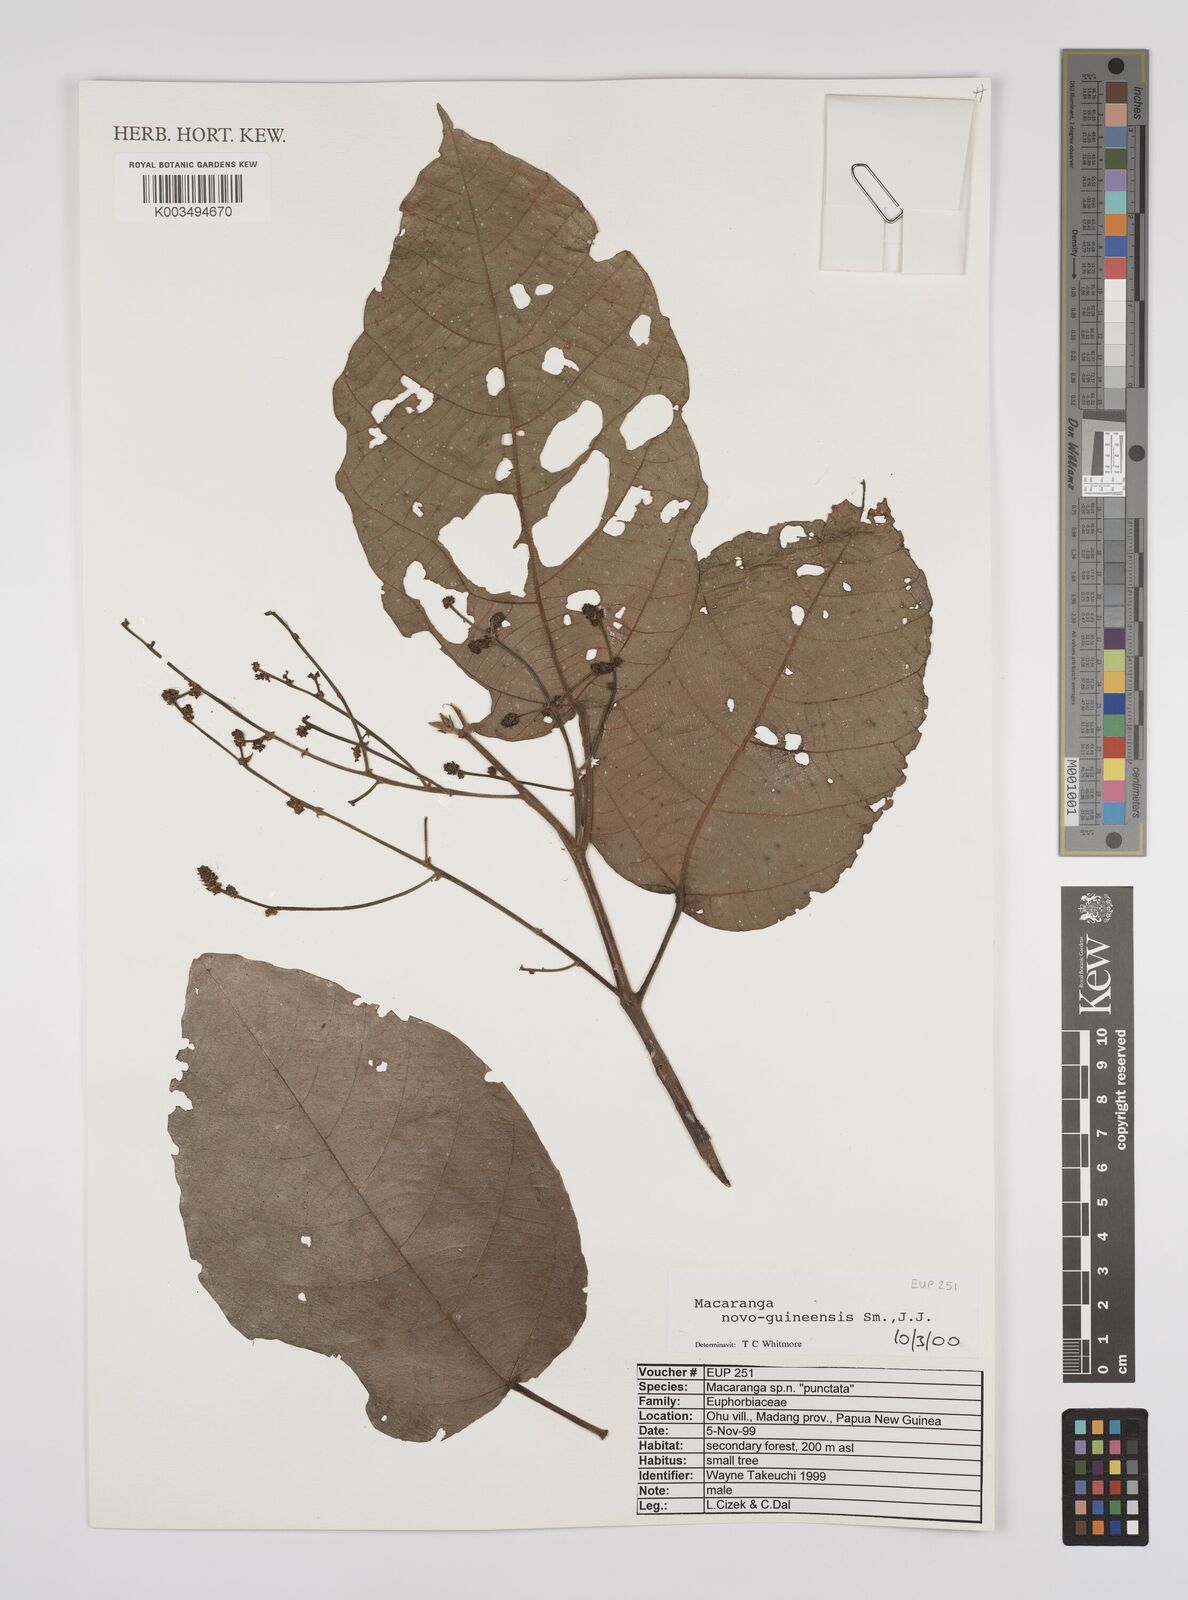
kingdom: Plantae
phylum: Tracheophyta
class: Magnoliopsida
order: Malpighiales
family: Euphorbiaceae
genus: Macaranga
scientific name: Macaranga novoguineensis
